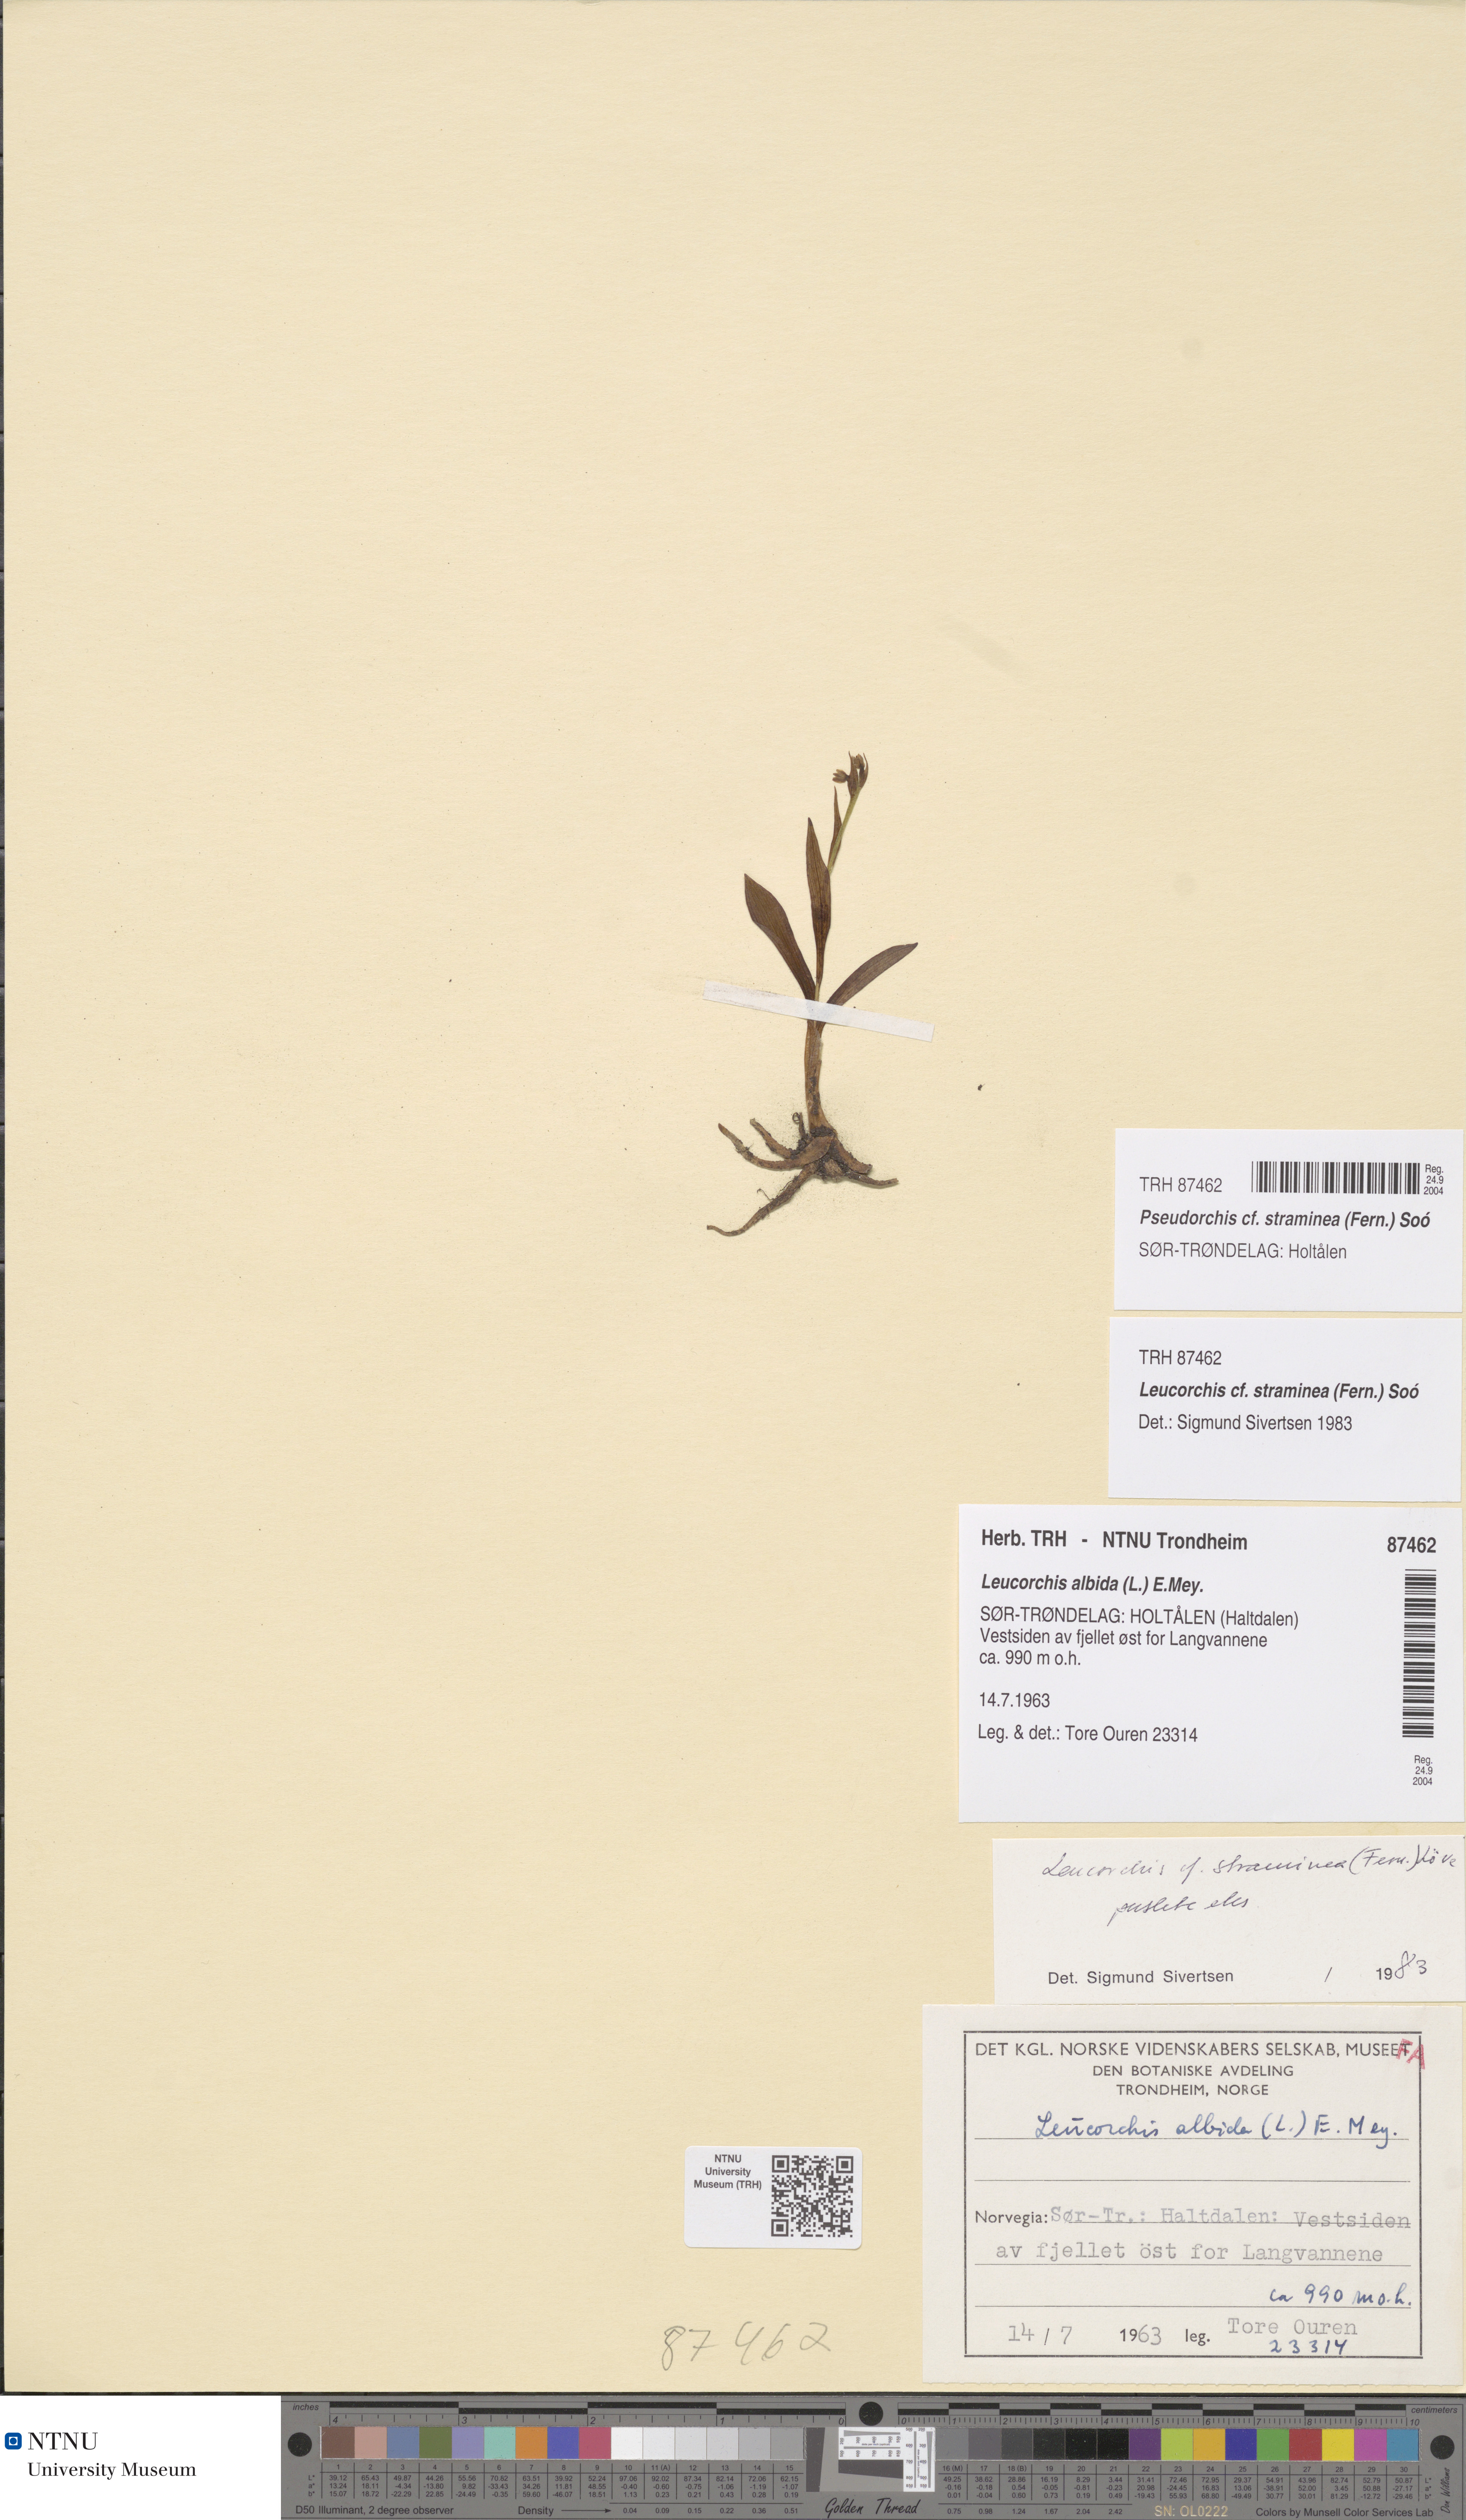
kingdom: Plantae
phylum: Tracheophyta
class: Liliopsida
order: Asparagales
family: Orchidaceae
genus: Pseudorchis
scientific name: Pseudorchis straminea
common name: Vanilla-scented bog orchid
